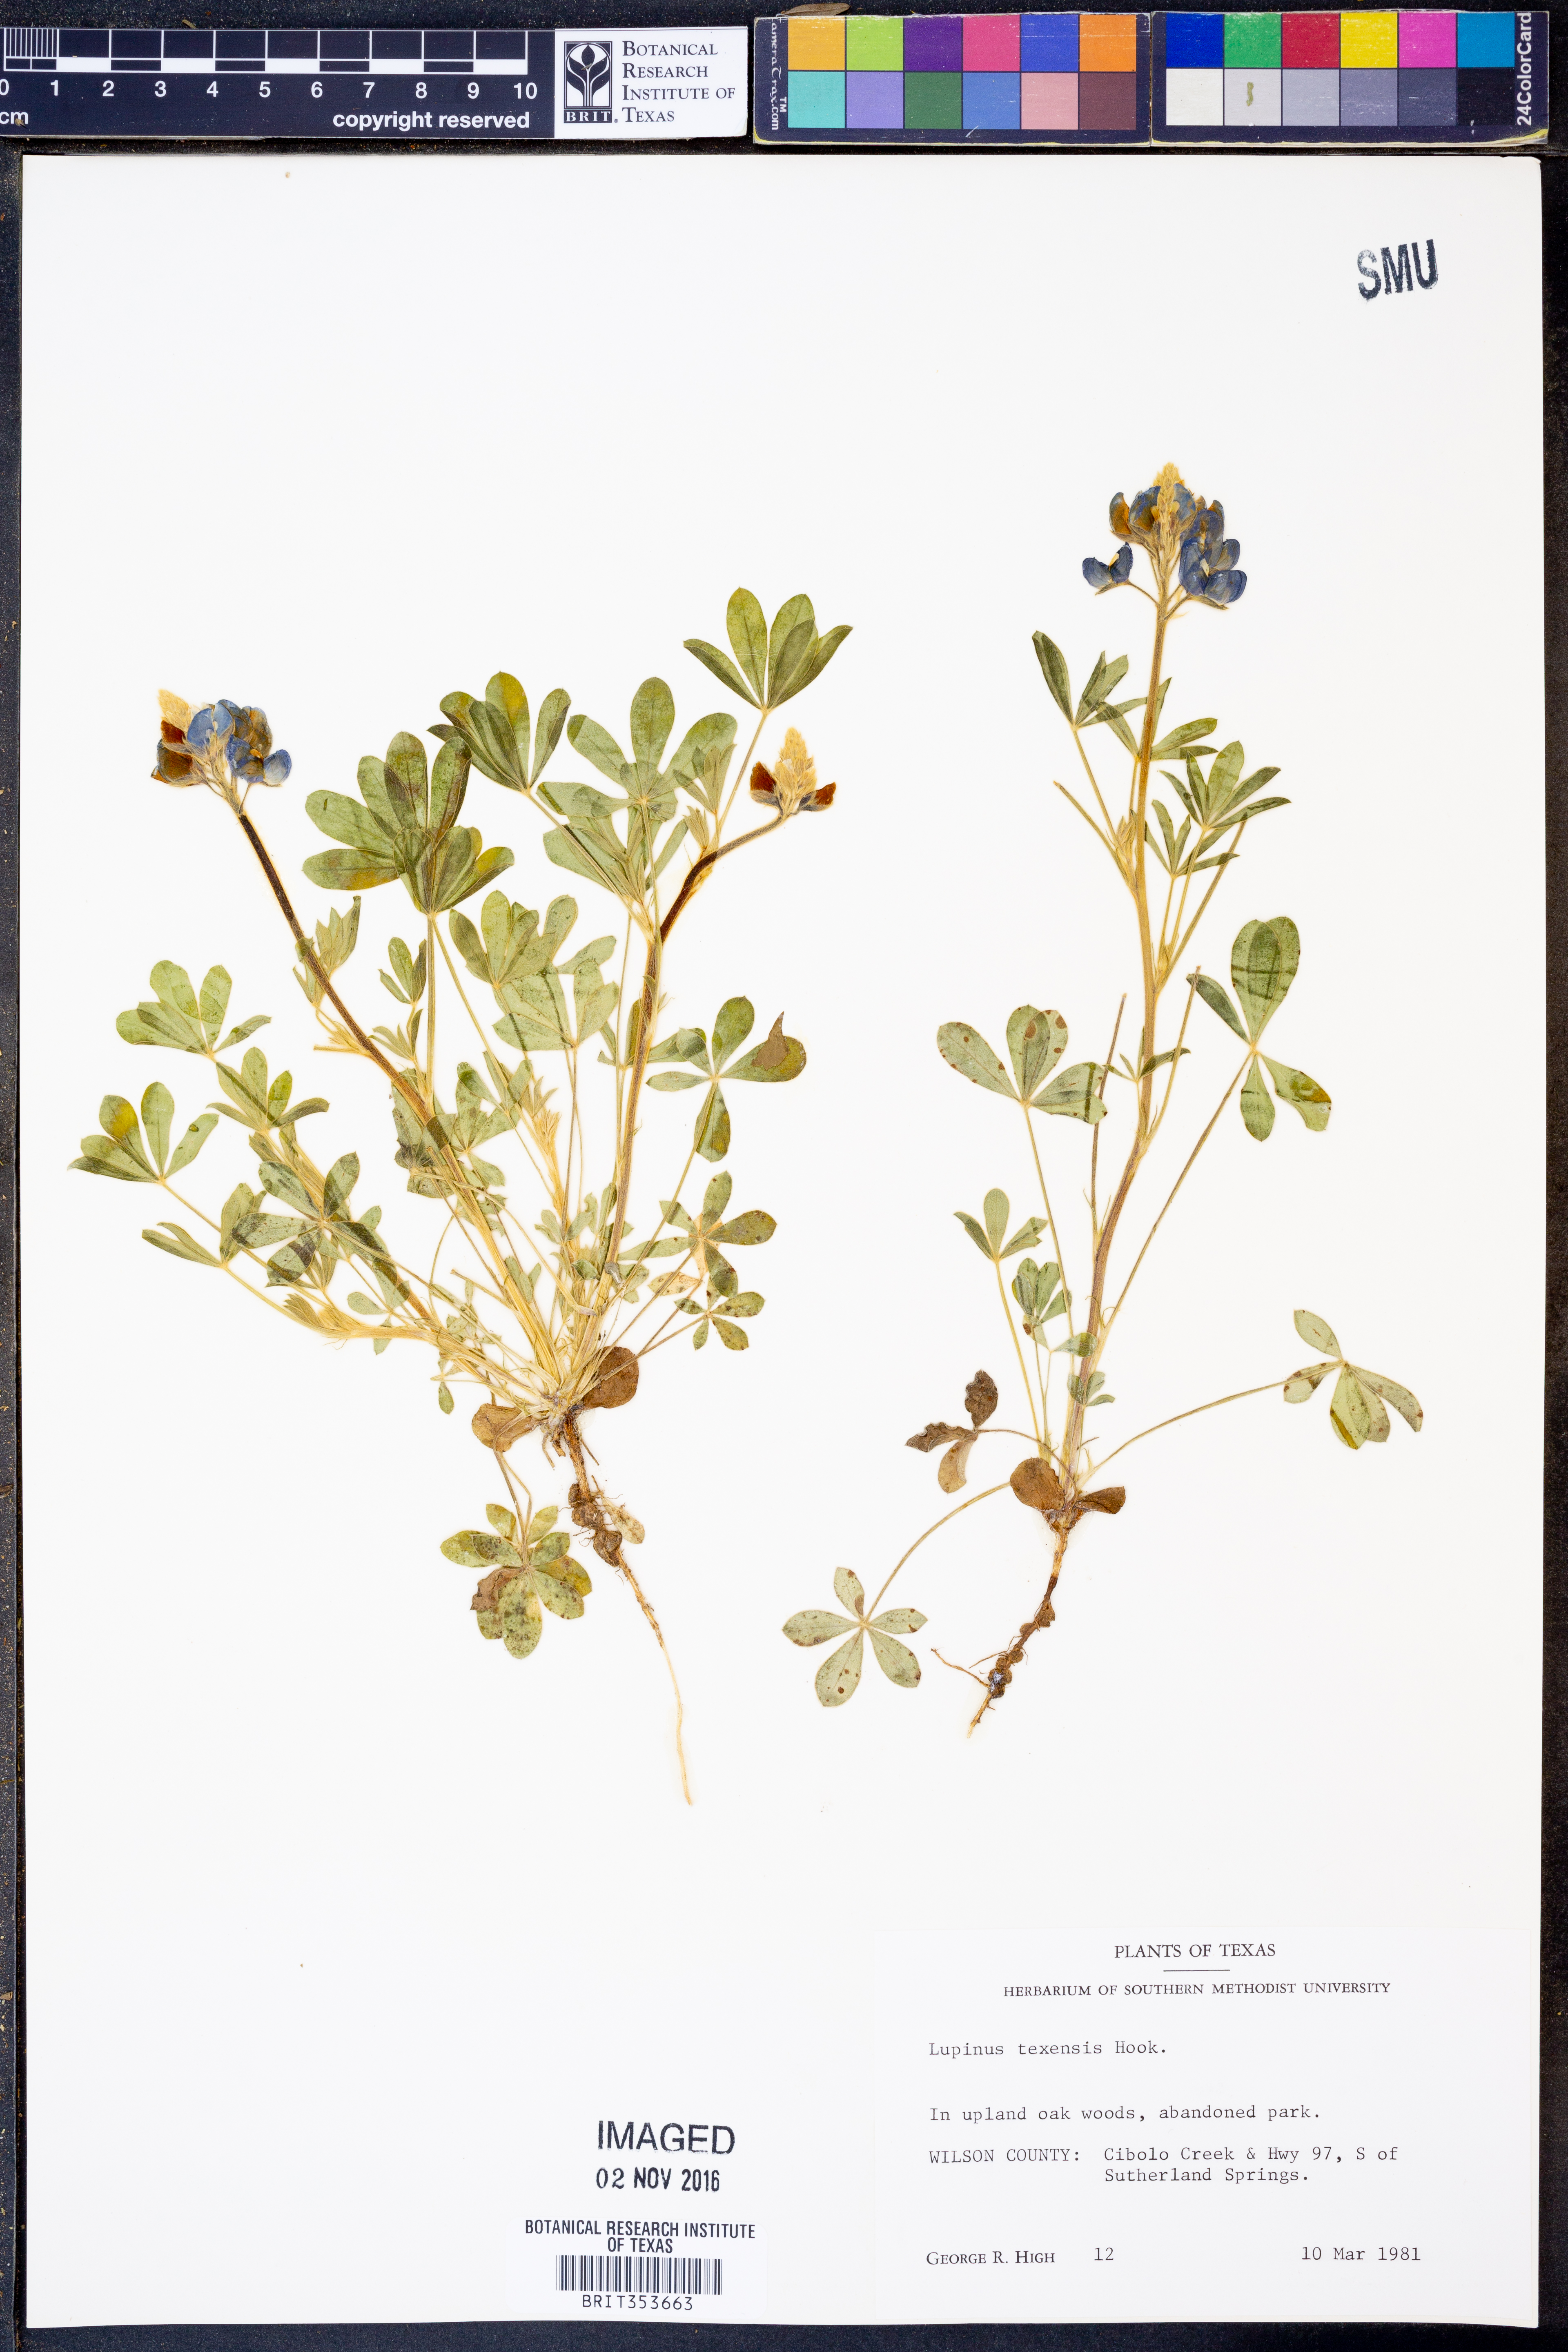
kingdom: Plantae
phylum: Tracheophyta
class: Magnoliopsida
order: Fabales
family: Fabaceae
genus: Lupinus
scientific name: Lupinus texensis
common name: Texas bluebonnet
